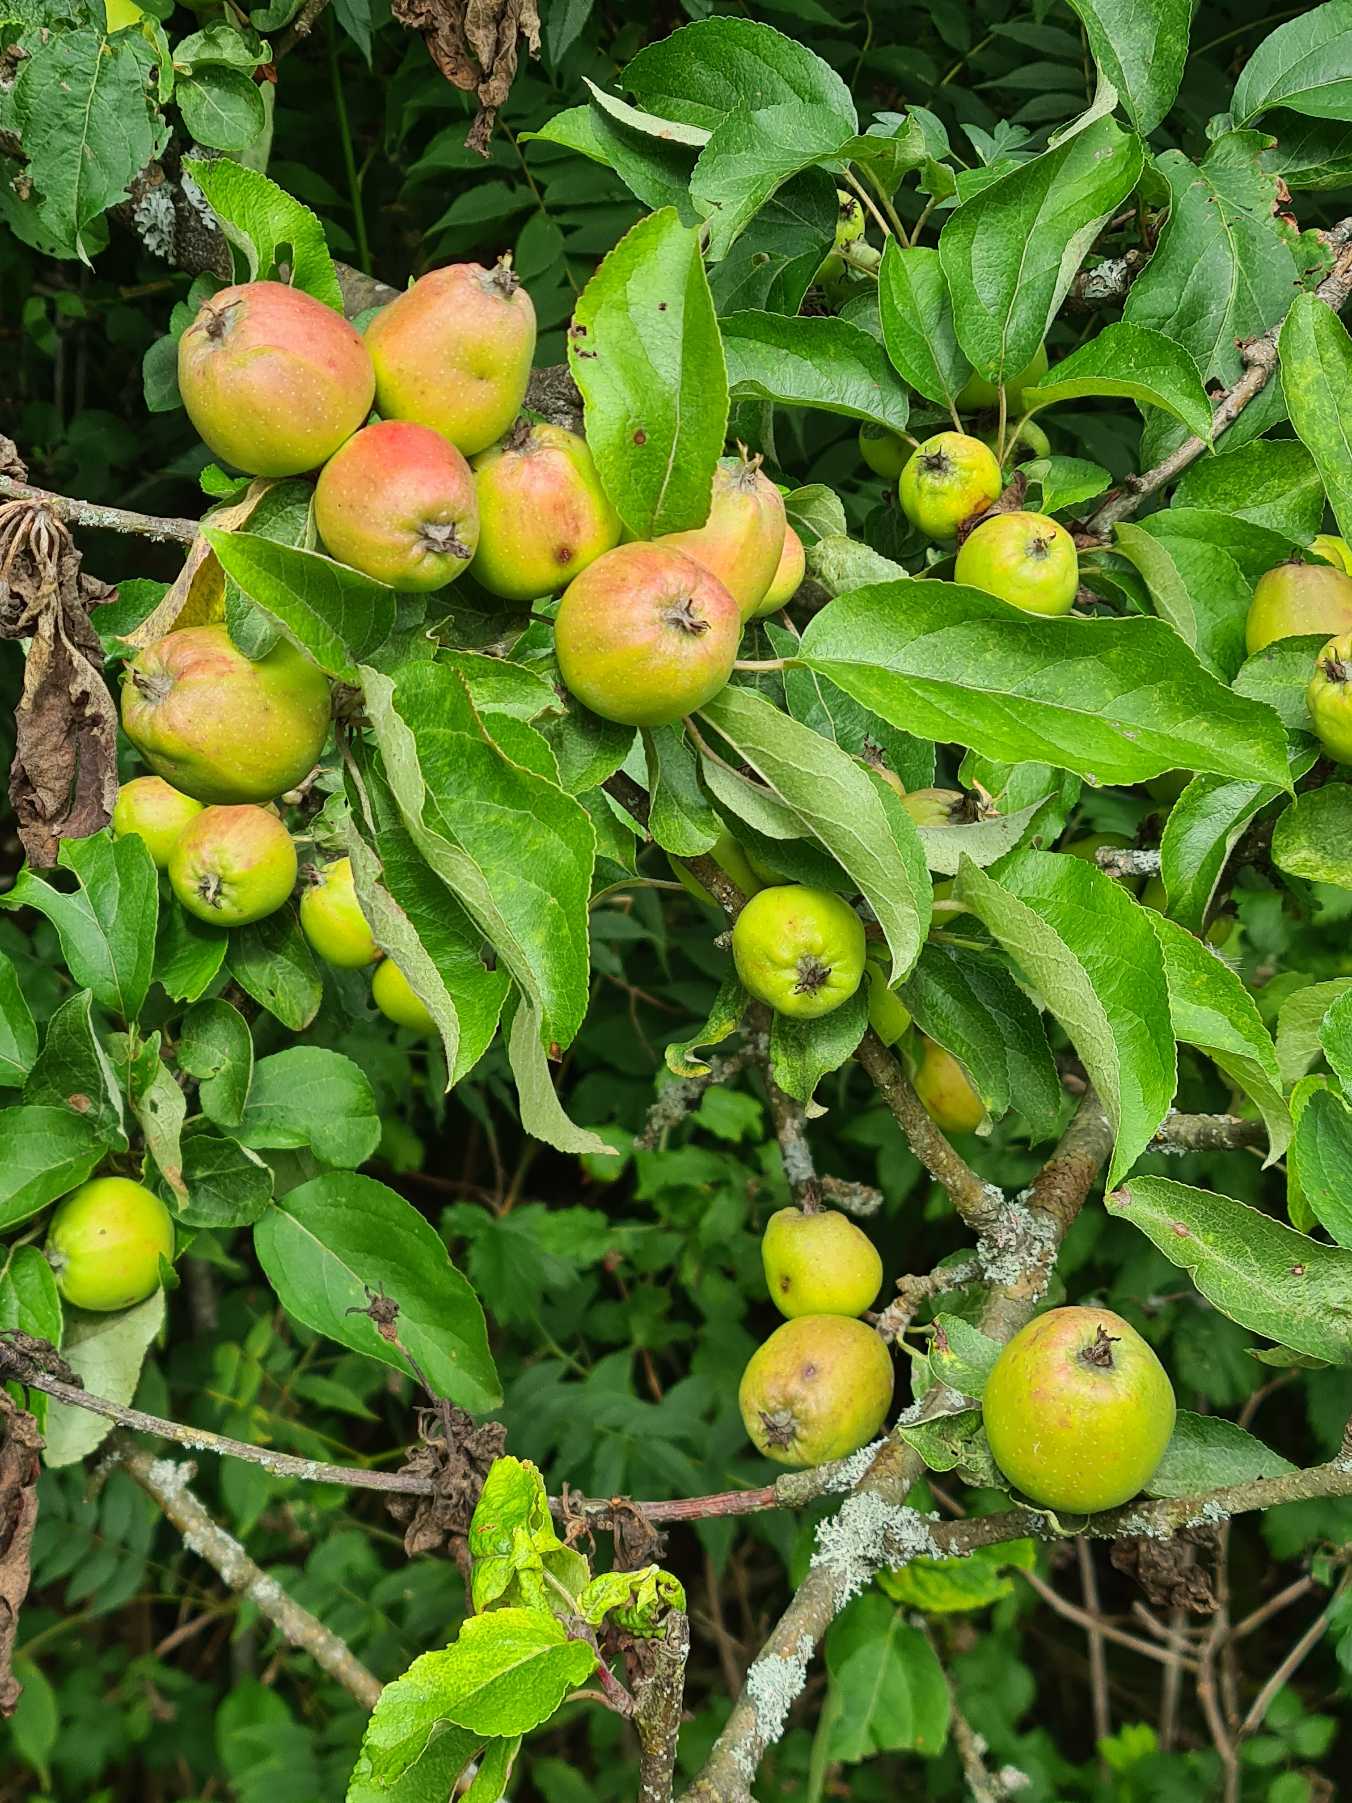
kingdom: Plantae
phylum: Tracheophyta
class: Magnoliopsida
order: Rosales
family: Rosaceae
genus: Malus
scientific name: Malus domestica
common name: Sød-æble
